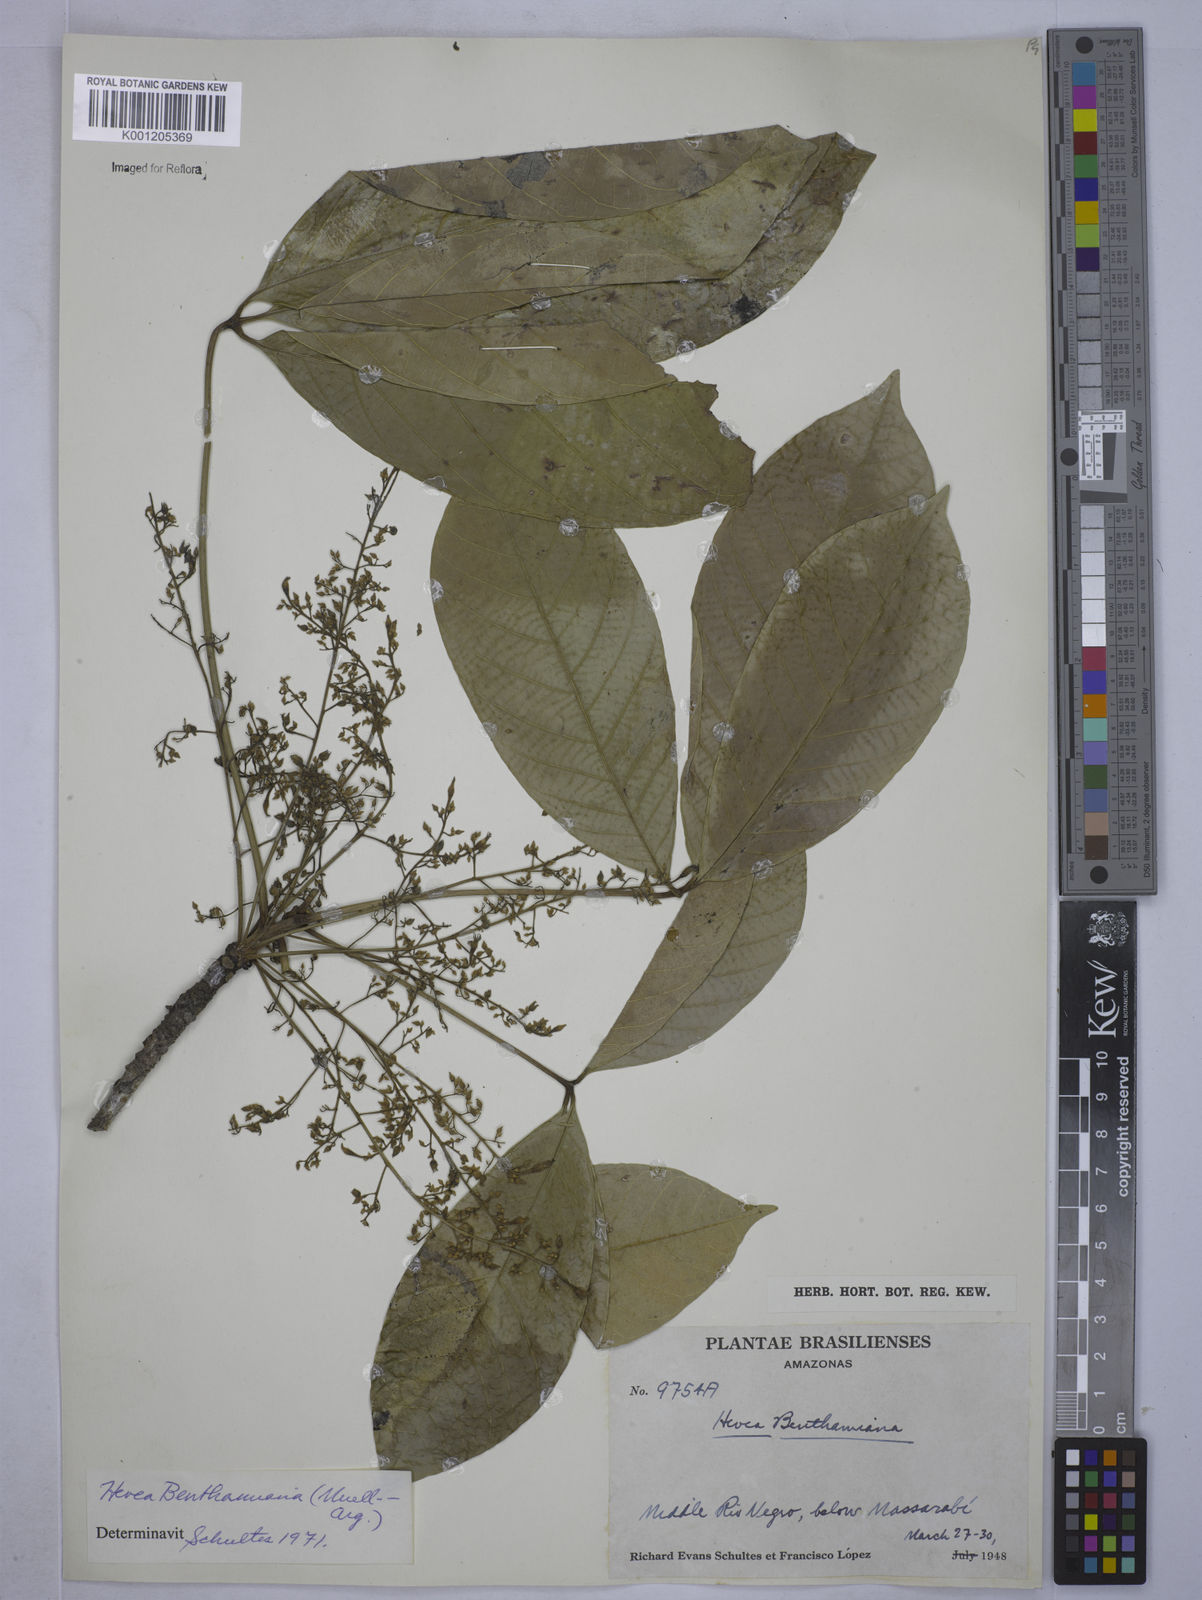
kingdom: Plantae
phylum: Tracheophyta
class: Magnoliopsida
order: Malpighiales
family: Euphorbiaceae
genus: Hevea
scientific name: Hevea
